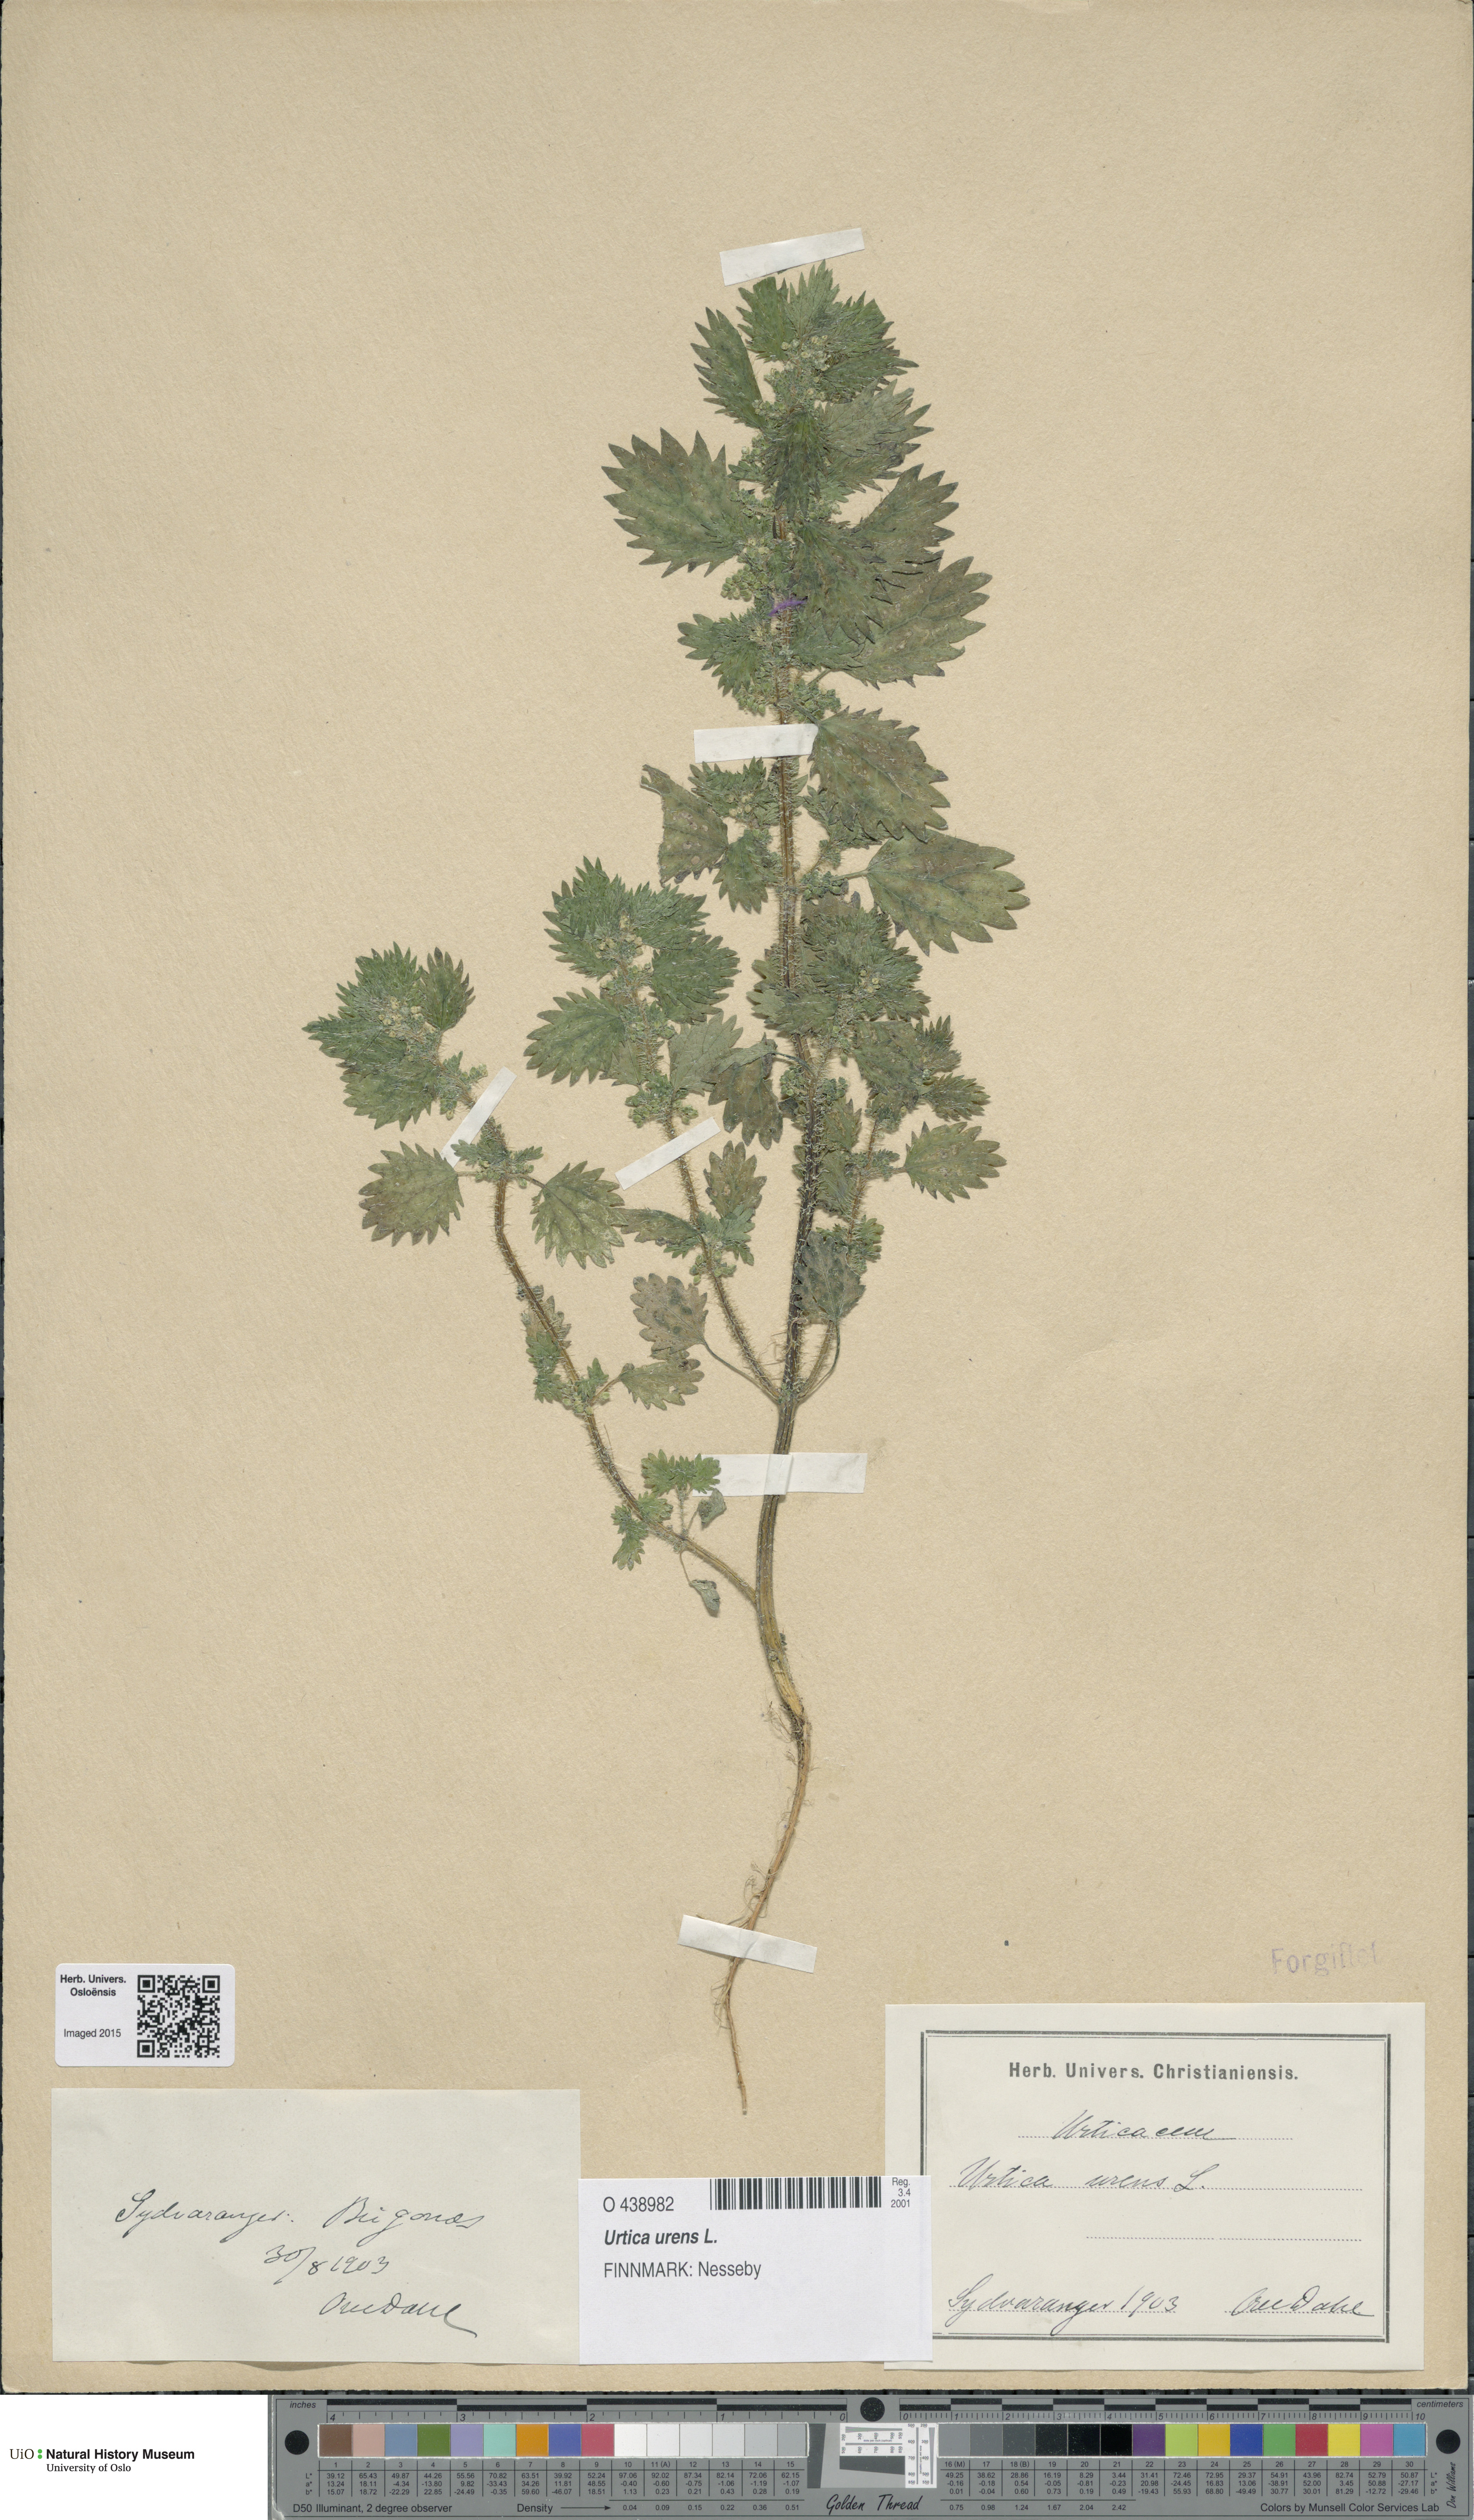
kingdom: Plantae
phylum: Tracheophyta
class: Magnoliopsida
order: Rosales
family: Urticaceae
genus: Urtica
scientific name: Urtica urens
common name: Dwarf nettle
